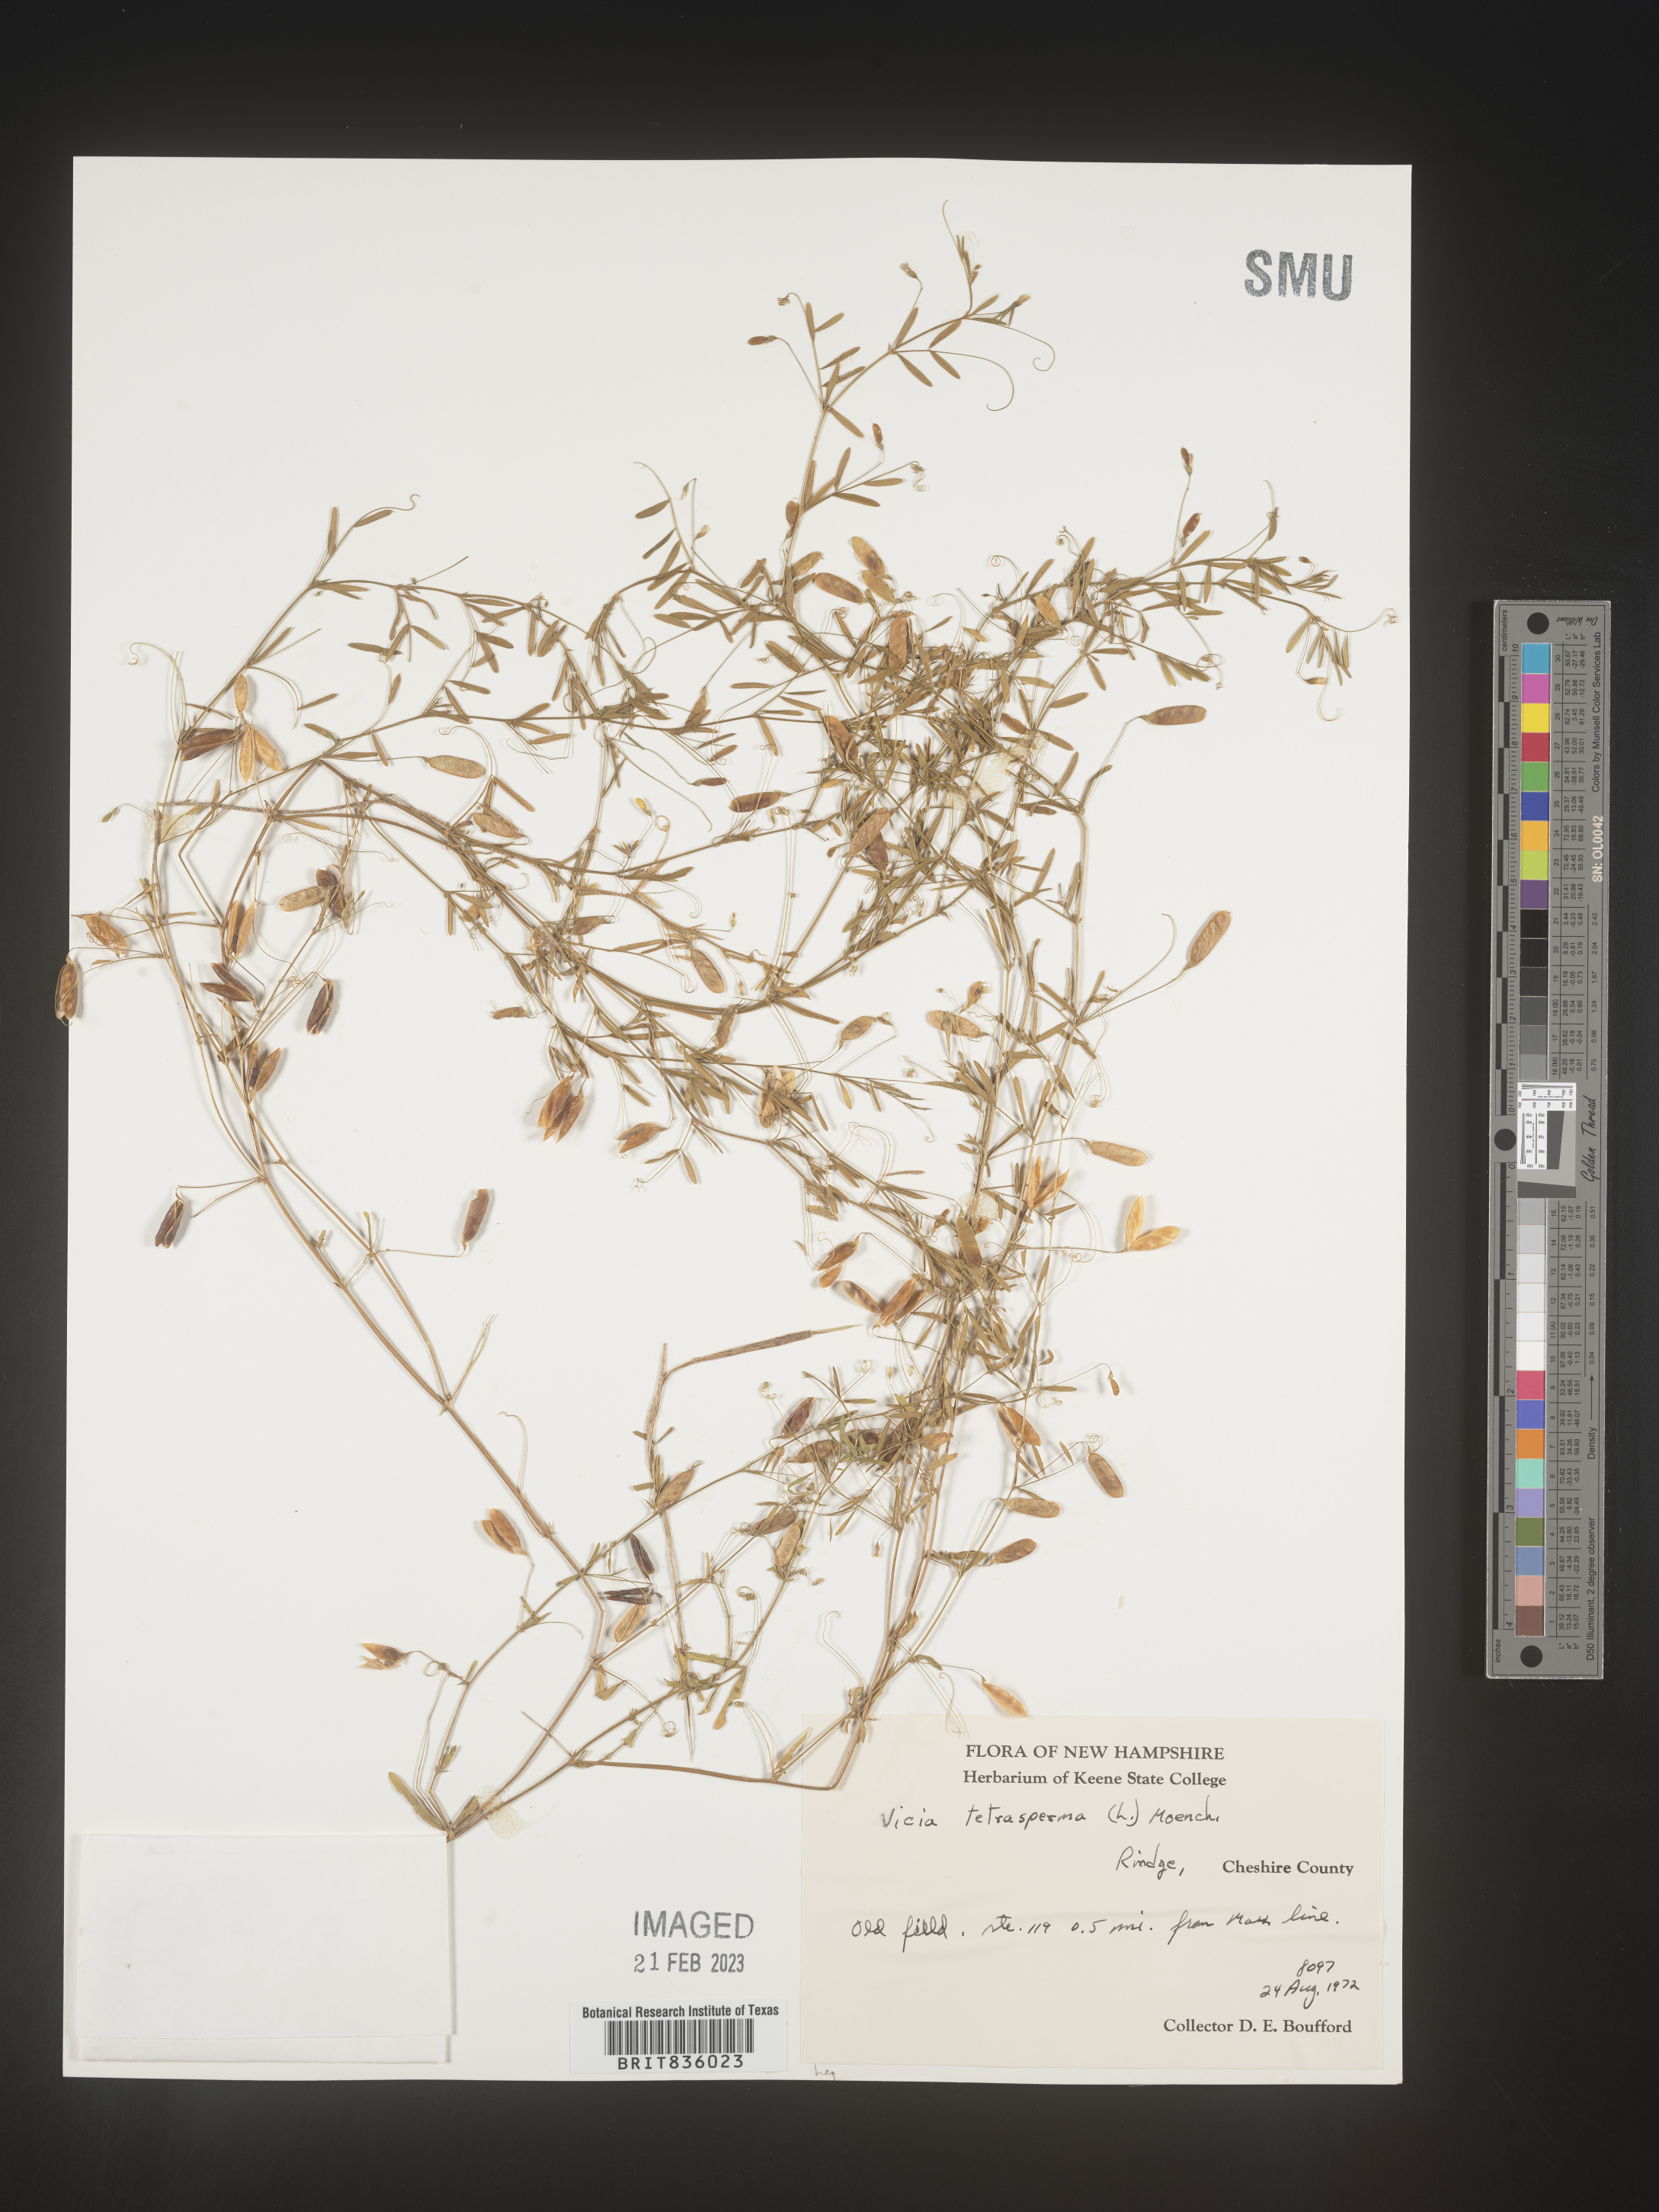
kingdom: Plantae
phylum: Tracheophyta
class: Magnoliopsida
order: Fabales
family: Fabaceae
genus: Vicia
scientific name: Vicia tetrasperma
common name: Smooth tare
